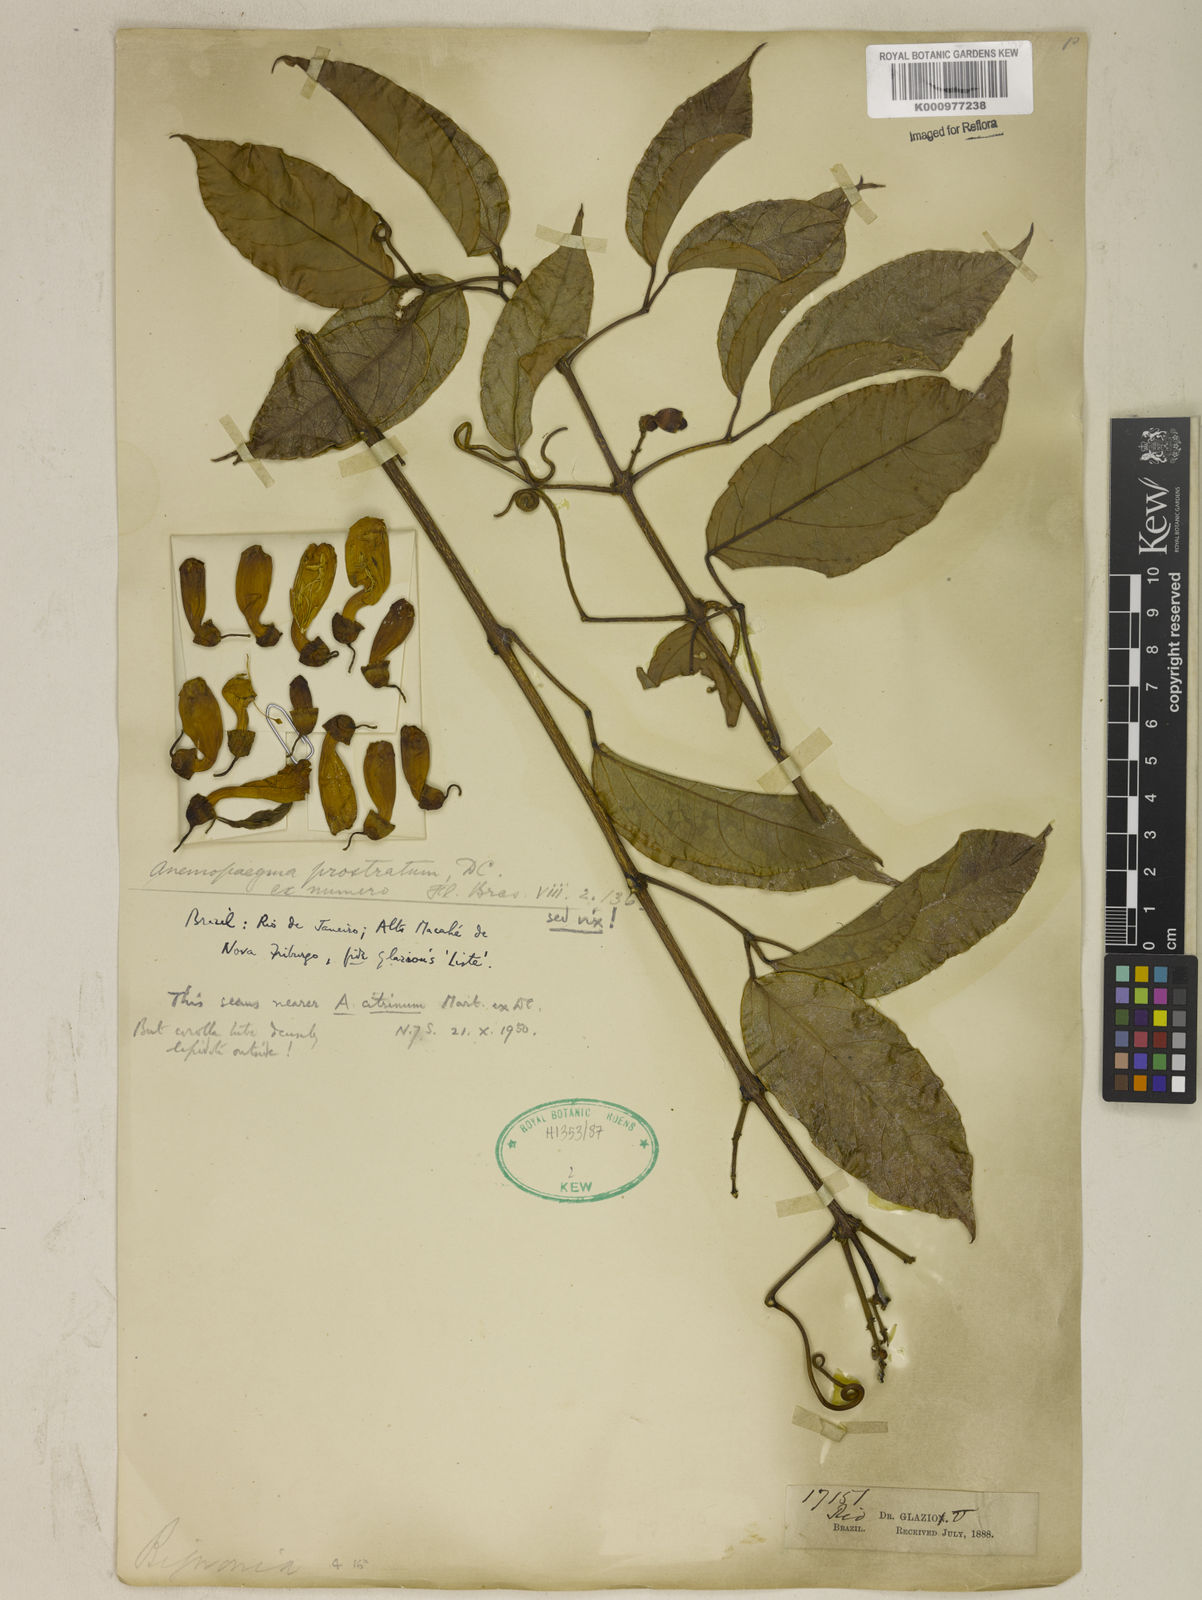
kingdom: Plantae
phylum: Tracheophyta
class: Magnoliopsida
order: Lamiales
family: Bignoniaceae
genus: Anemopaegma
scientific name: Anemopaegma citrinum
